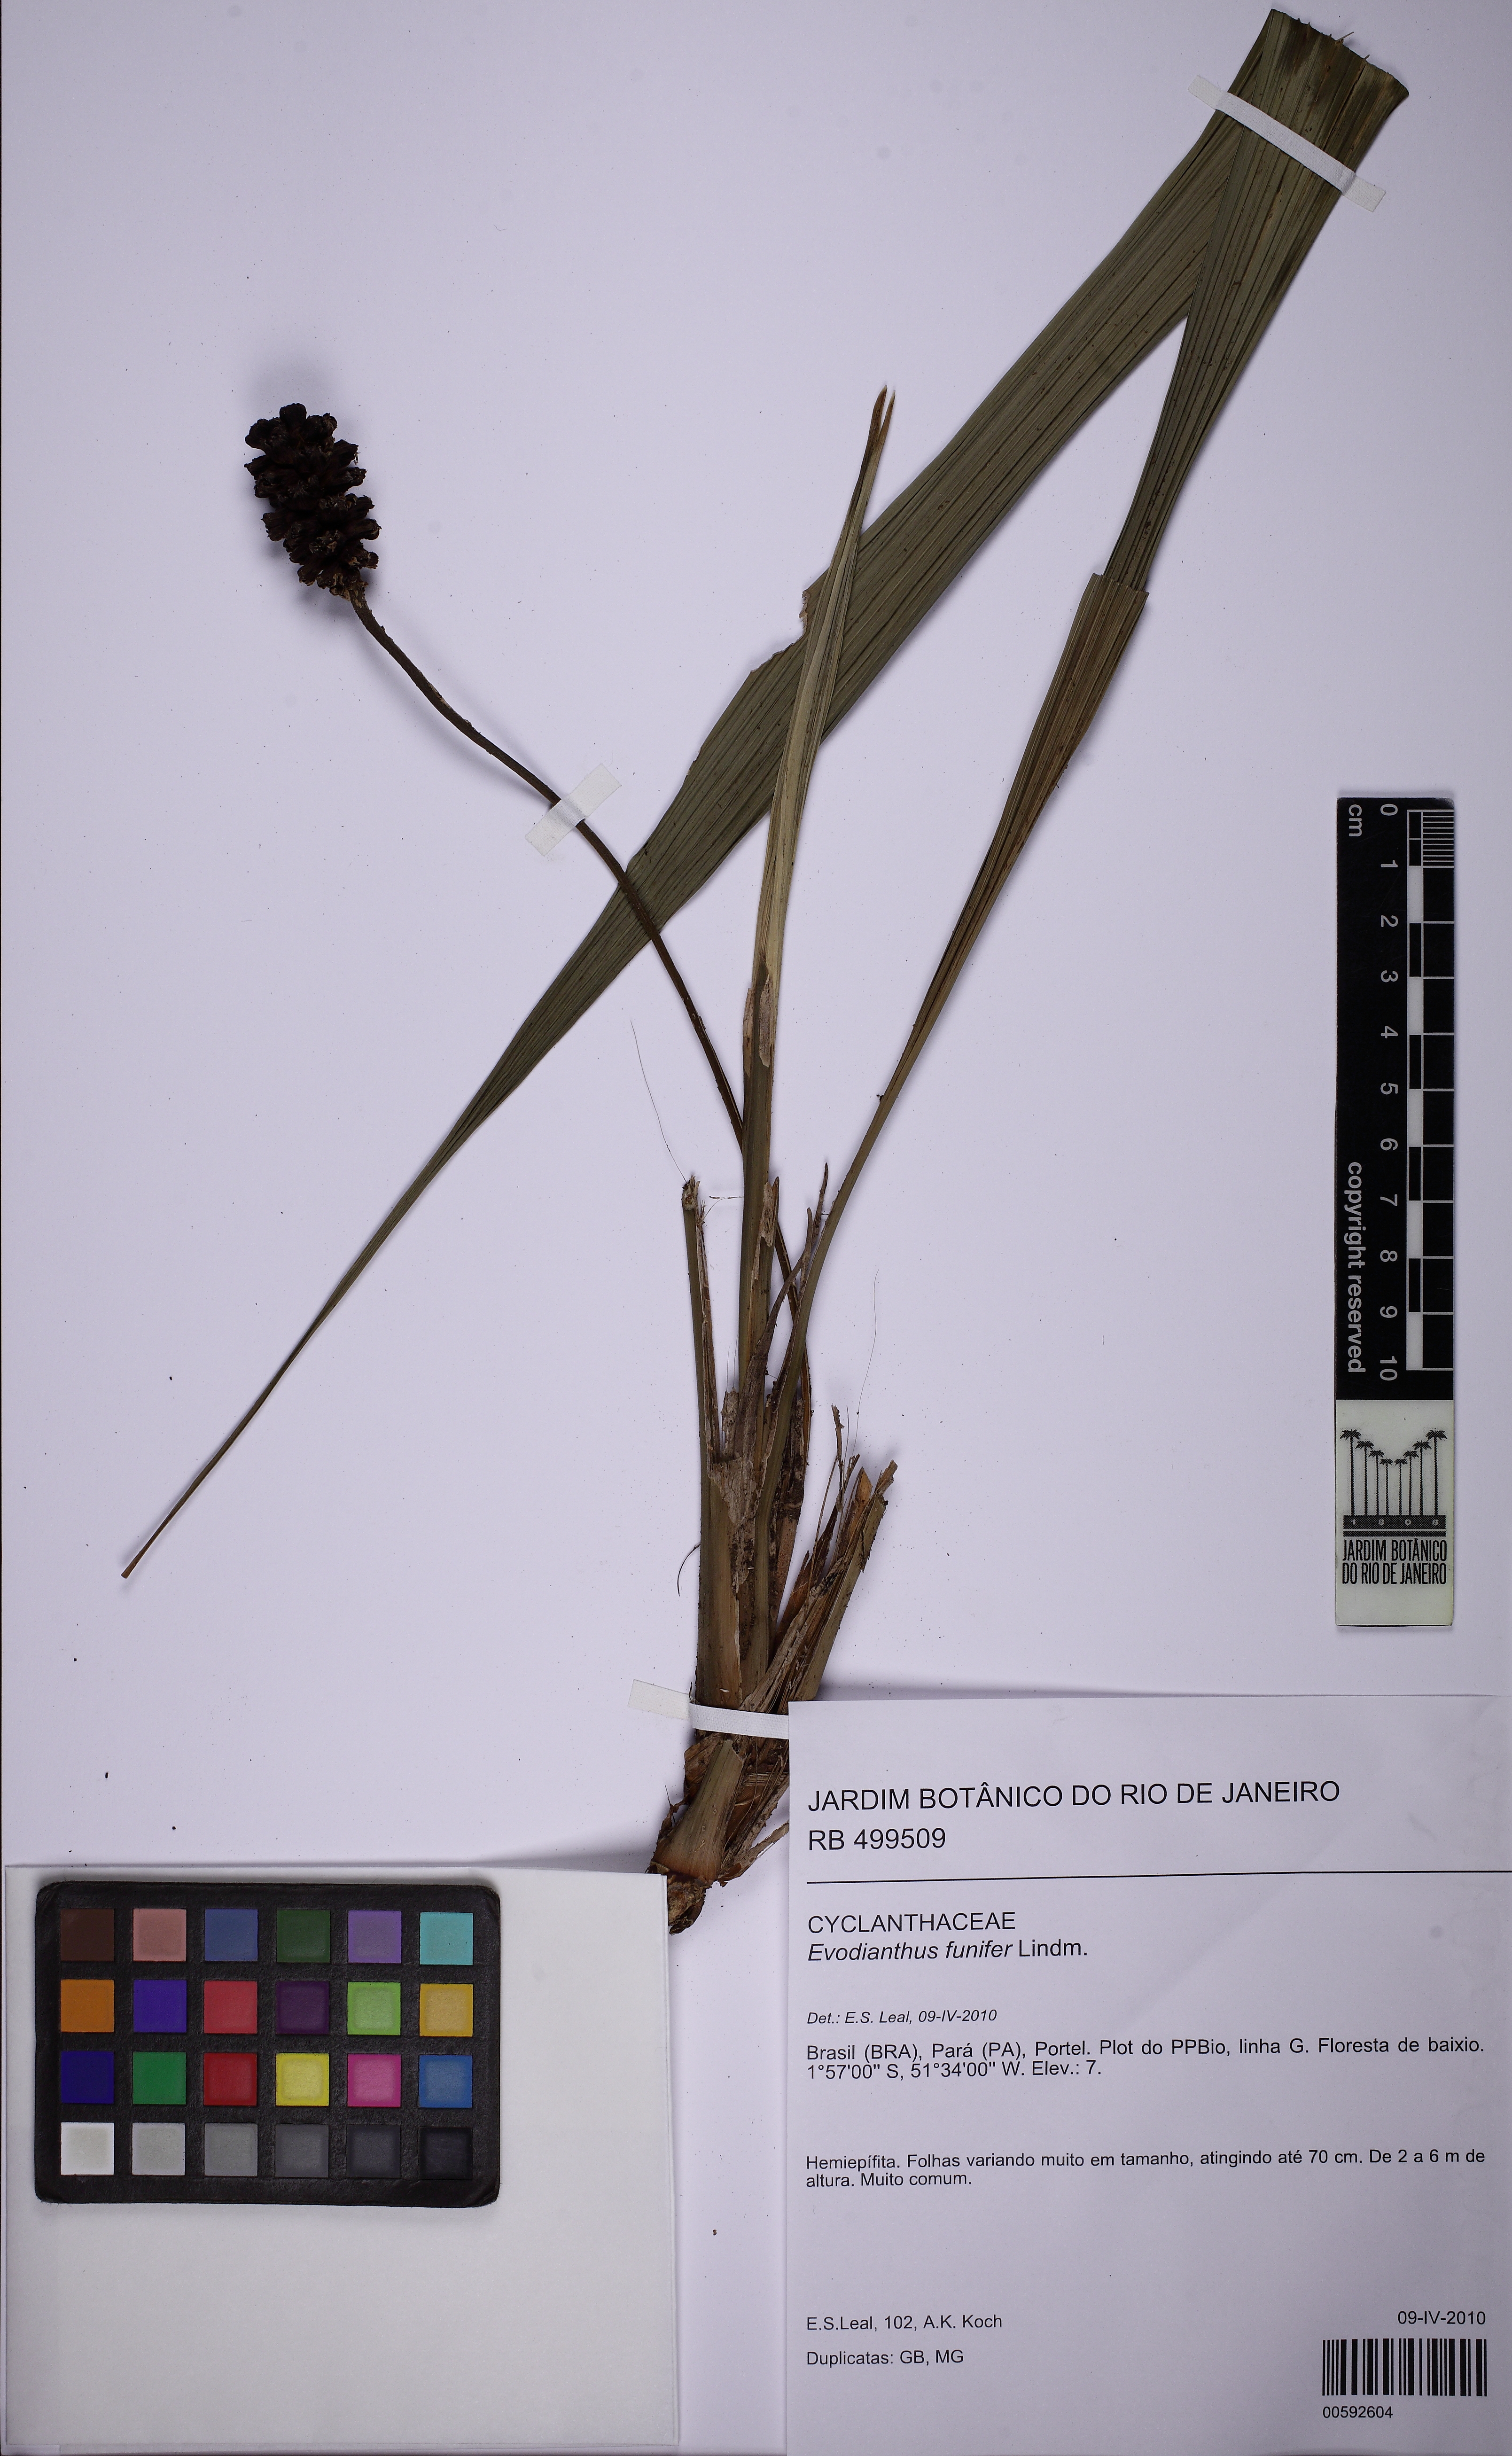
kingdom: Plantae
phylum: Tracheophyta
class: Liliopsida
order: Pandanales
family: Cyclanthaceae
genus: Evodianthus
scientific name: Evodianthus funifer
